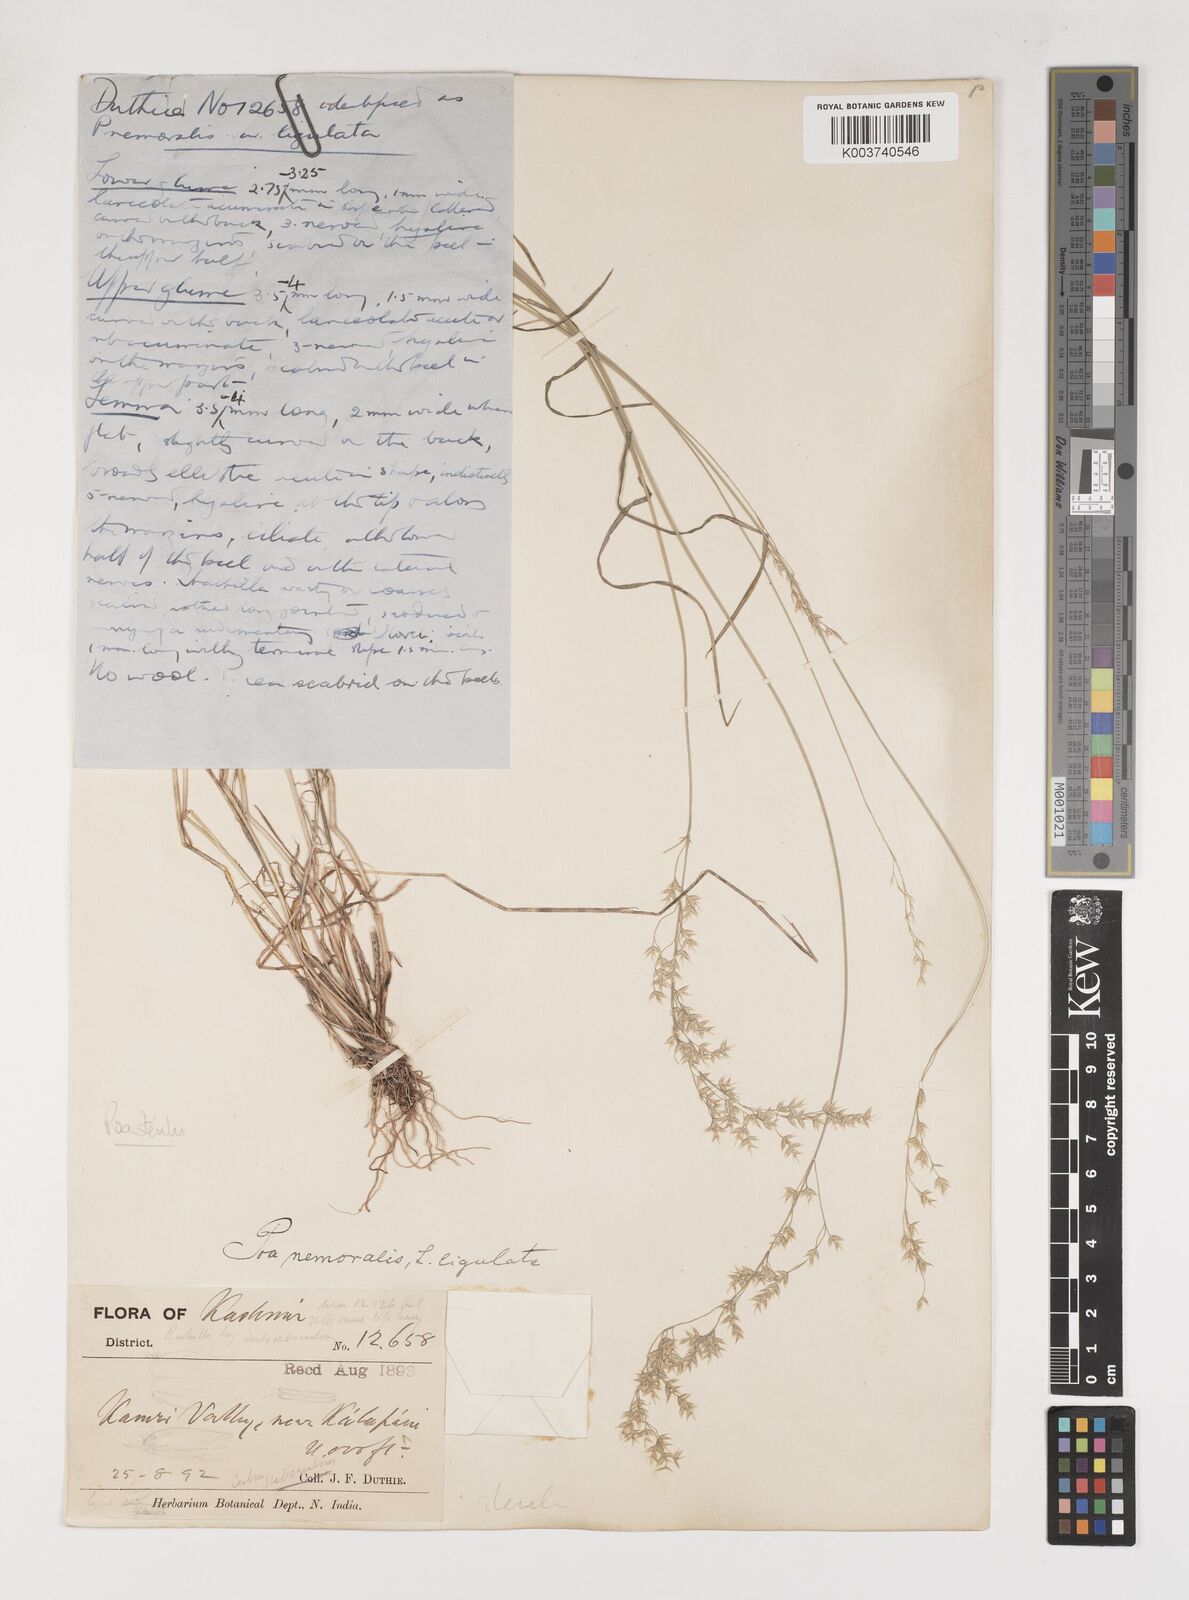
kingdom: Plantae
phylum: Tracheophyta
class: Liliopsida
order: Poales
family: Poaceae
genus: Poa
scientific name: Poa sterilis
